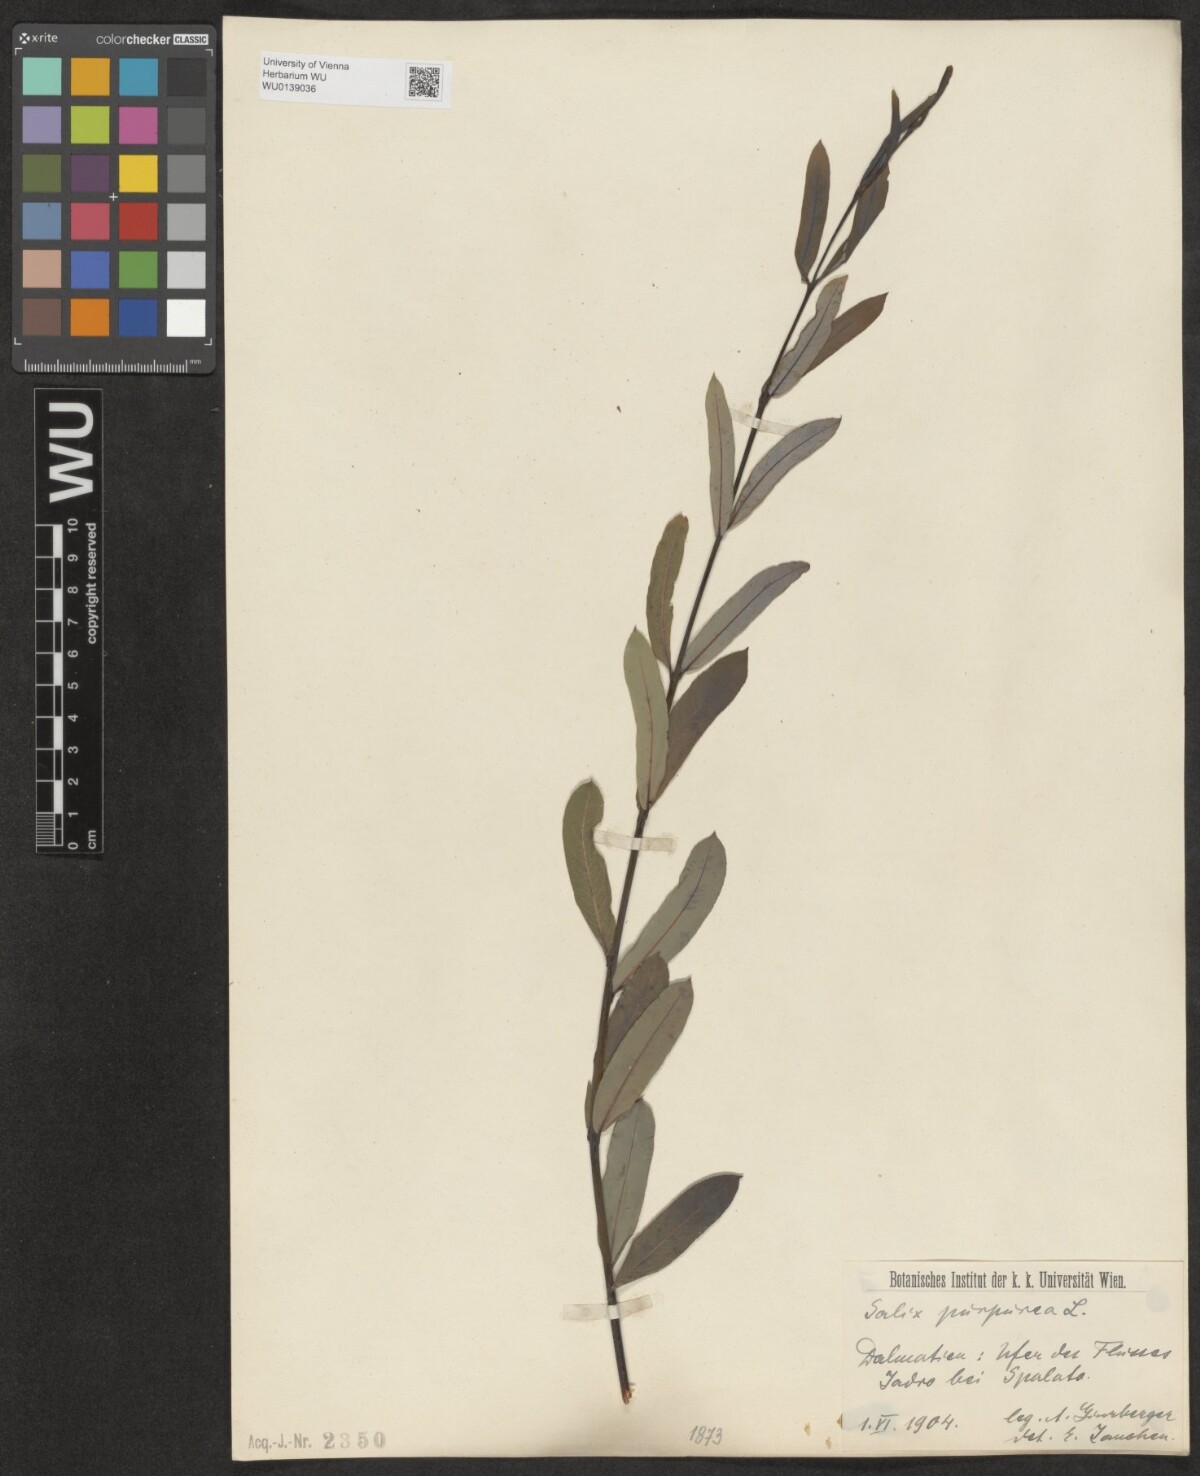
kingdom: Plantae
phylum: Tracheophyta
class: Magnoliopsida
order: Malpighiales
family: Salicaceae
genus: Salix
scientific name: Salix purpurea
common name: Purple willow
